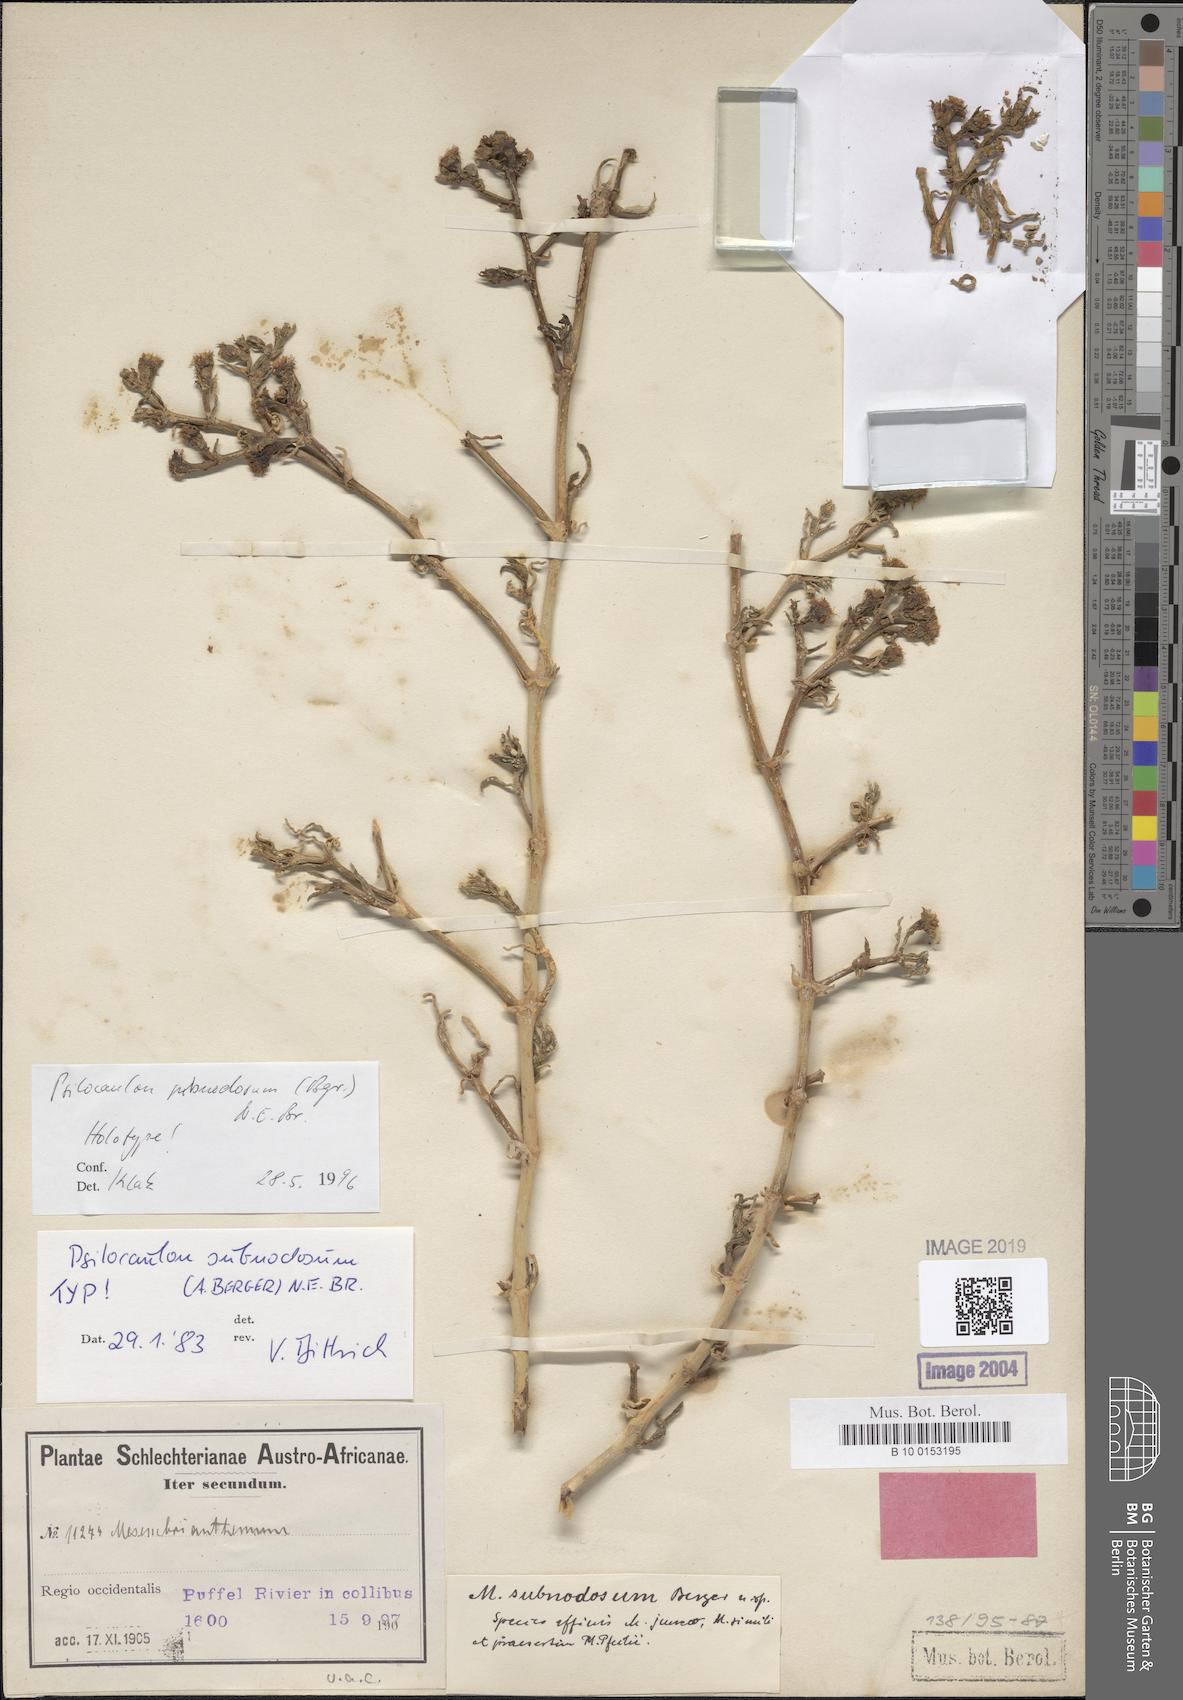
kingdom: Plantae
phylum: Tracheophyta
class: Magnoliopsida
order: Caryophyllales
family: Aizoaceae
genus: Mesembryanthemum
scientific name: Mesembryanthemum subnodosum
